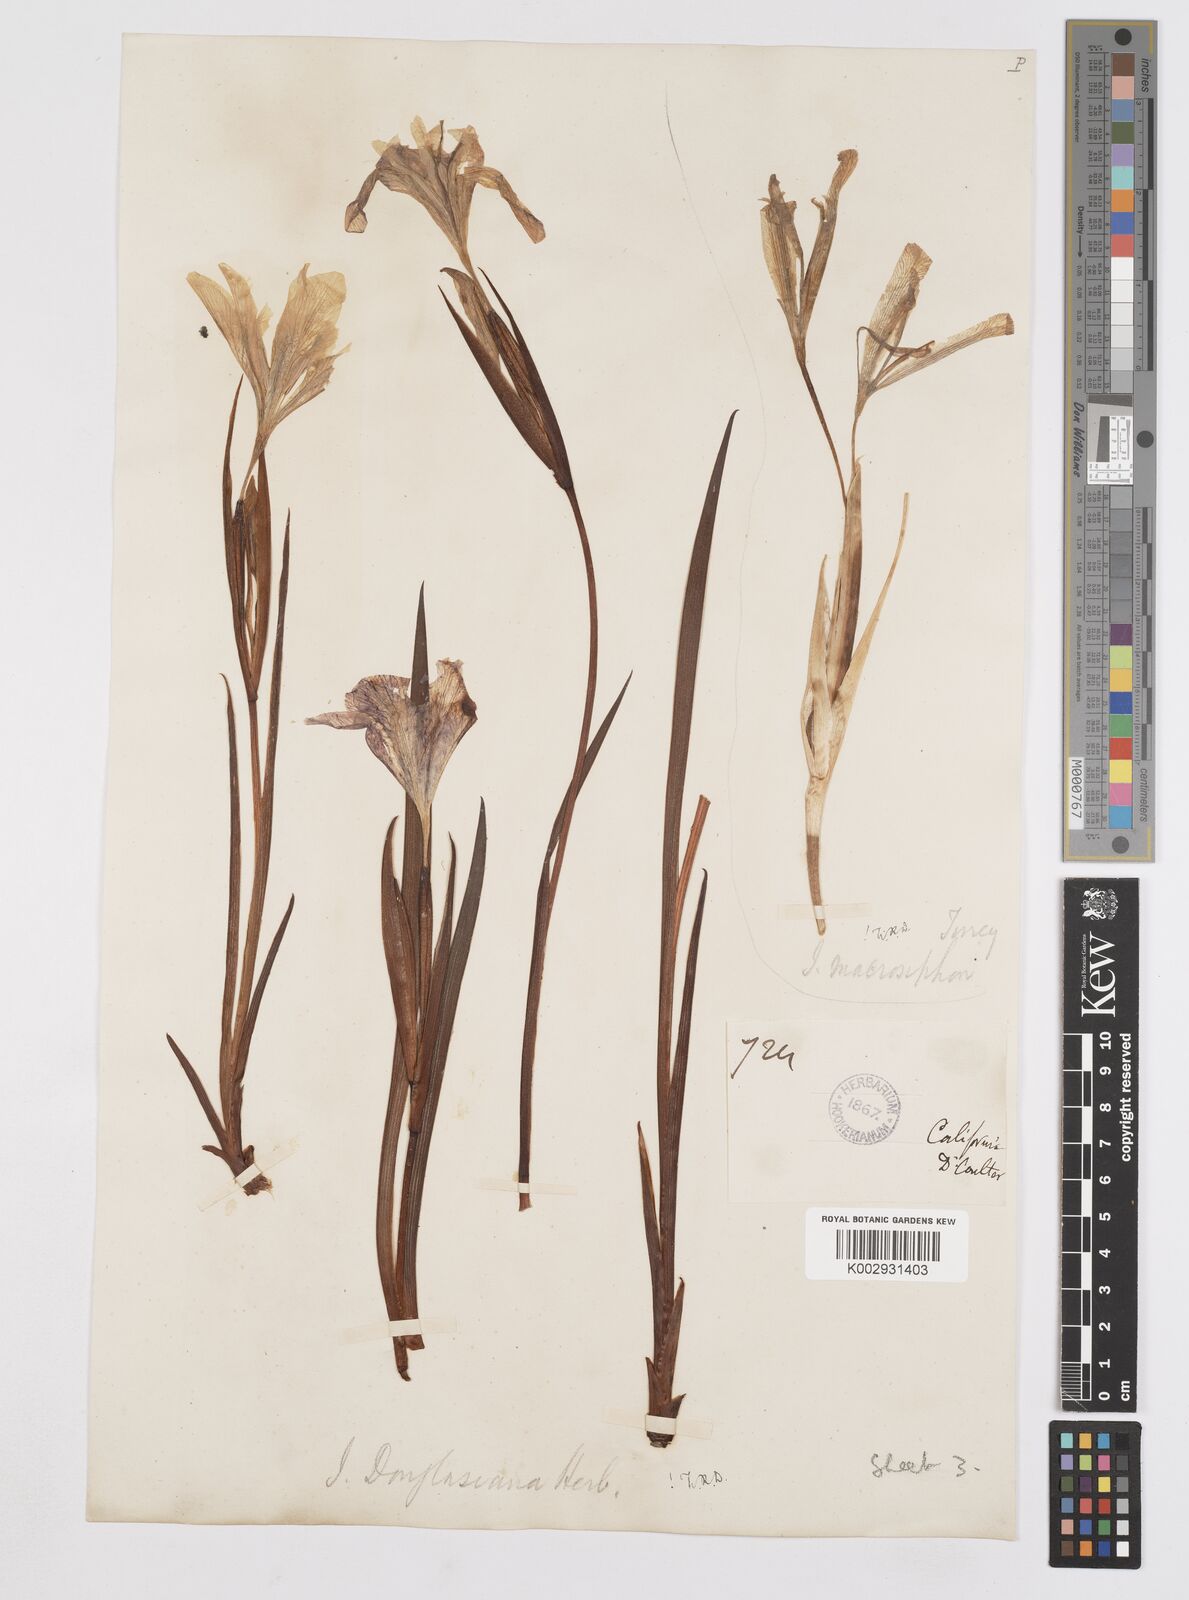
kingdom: Plantae
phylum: Tracheophyta
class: Liliopsida
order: Asparagales
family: Iridaceae
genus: Iris
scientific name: Iris douglasiana
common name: Marin iris
